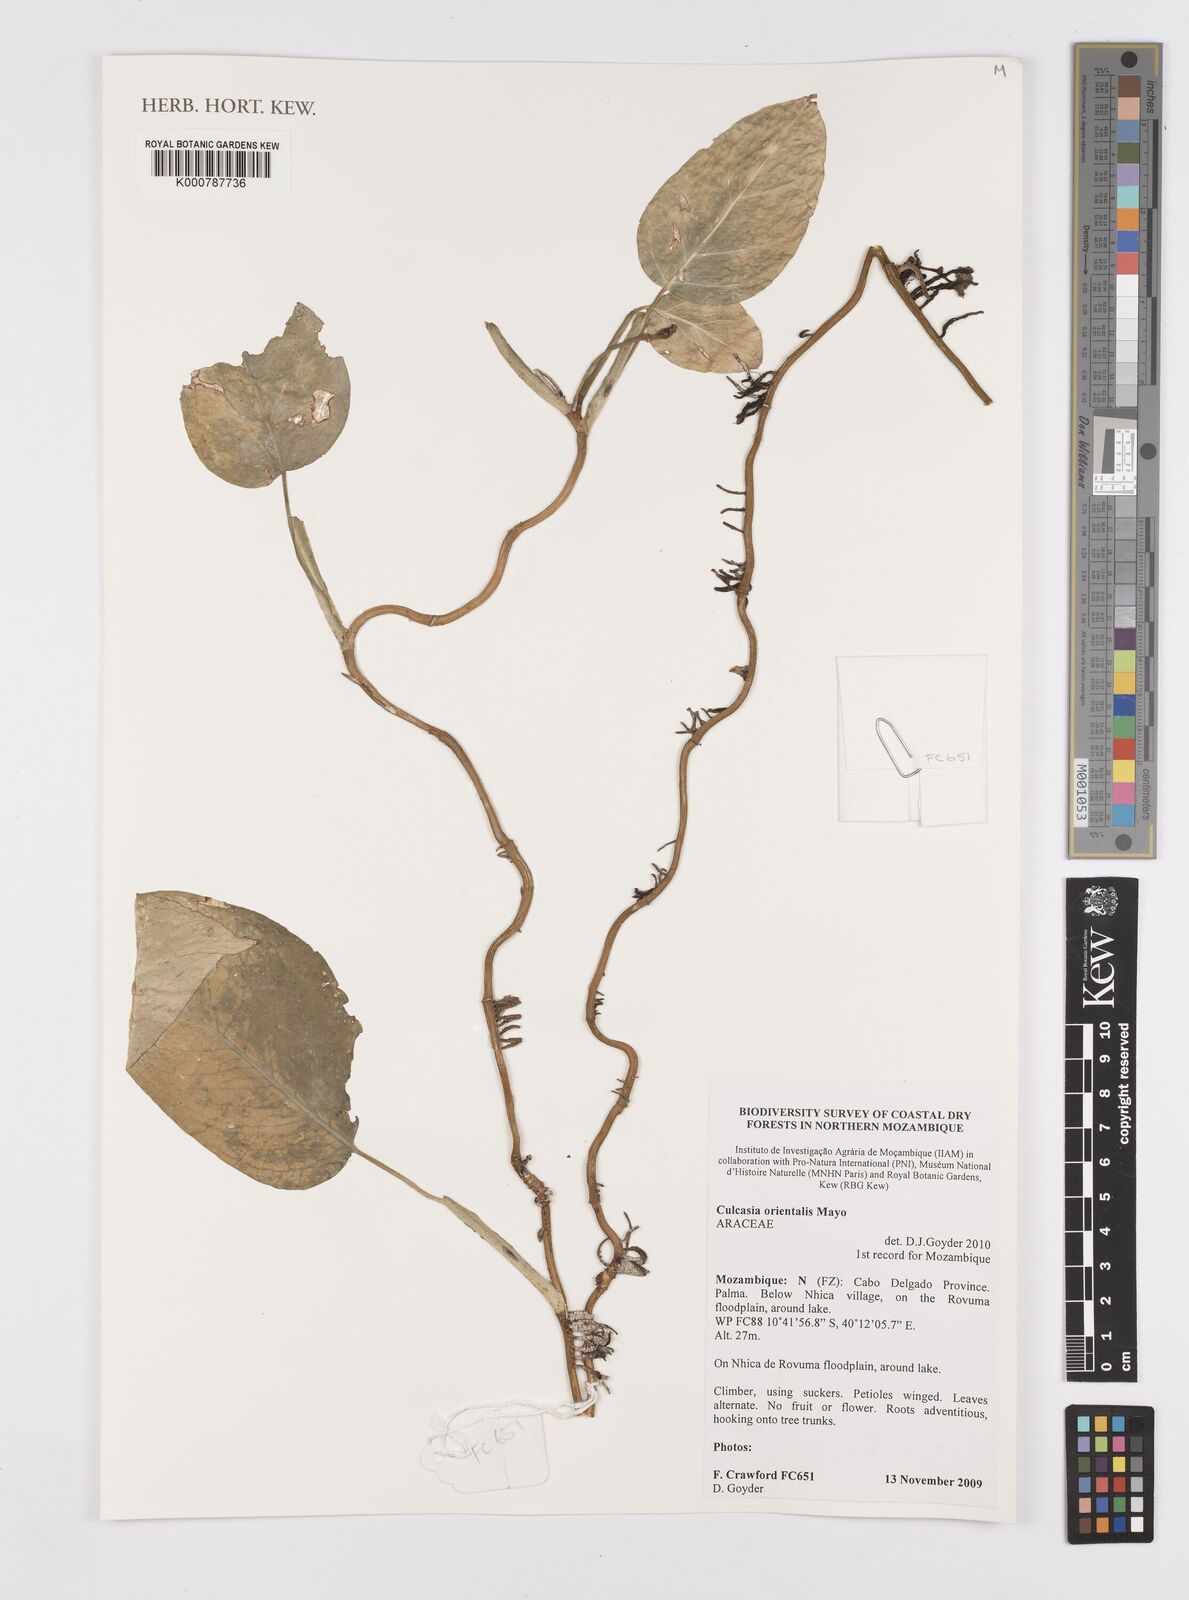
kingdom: Plantae
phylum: Tracheophyta
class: Liliopsida
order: Alismatales
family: Araceae
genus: Culcasia
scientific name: Culcasia orientalis
